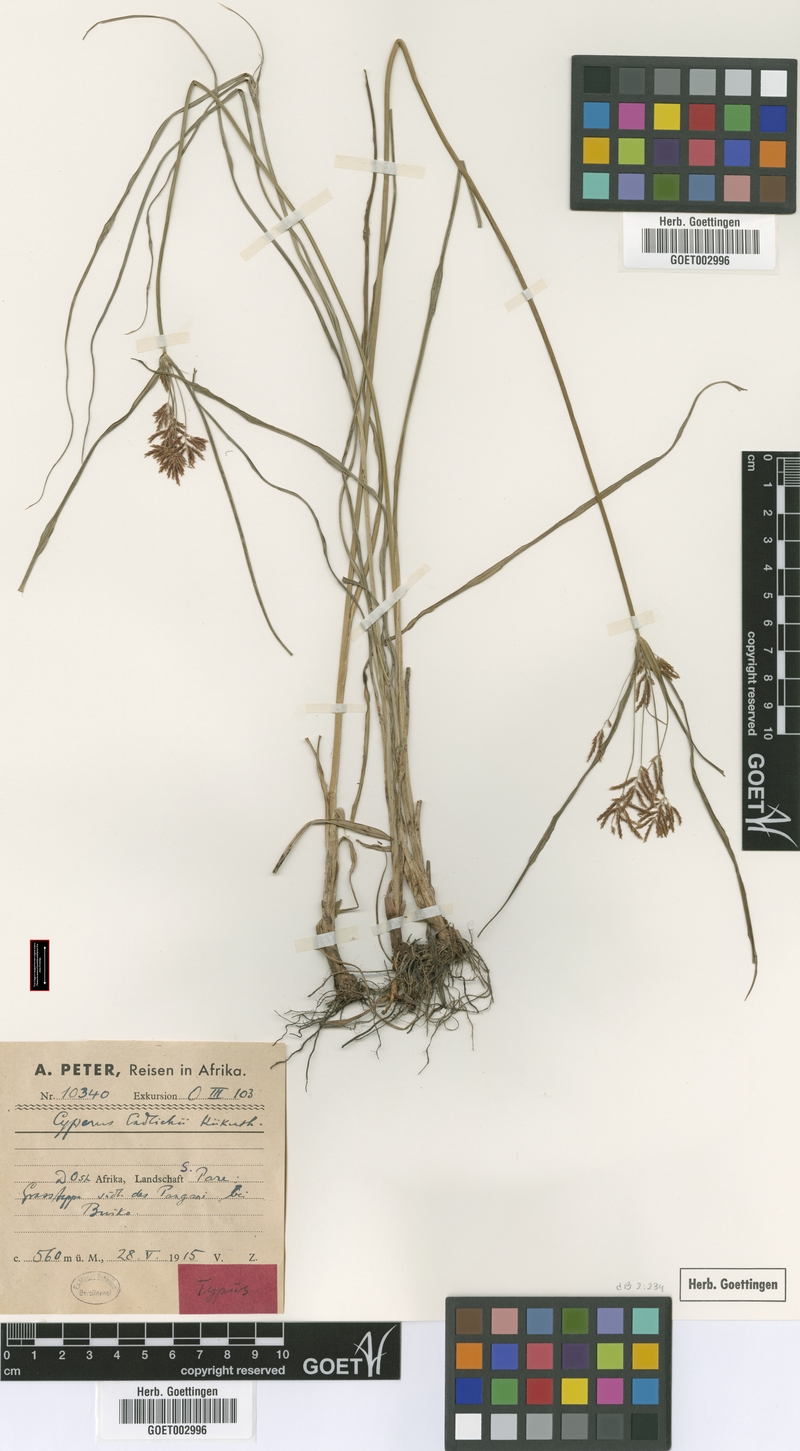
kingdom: Plantae
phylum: Tracheophyta
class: Liliopsida
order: Poales
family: Cyperaceae
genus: Cyperus
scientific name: Cyperus endlichii
